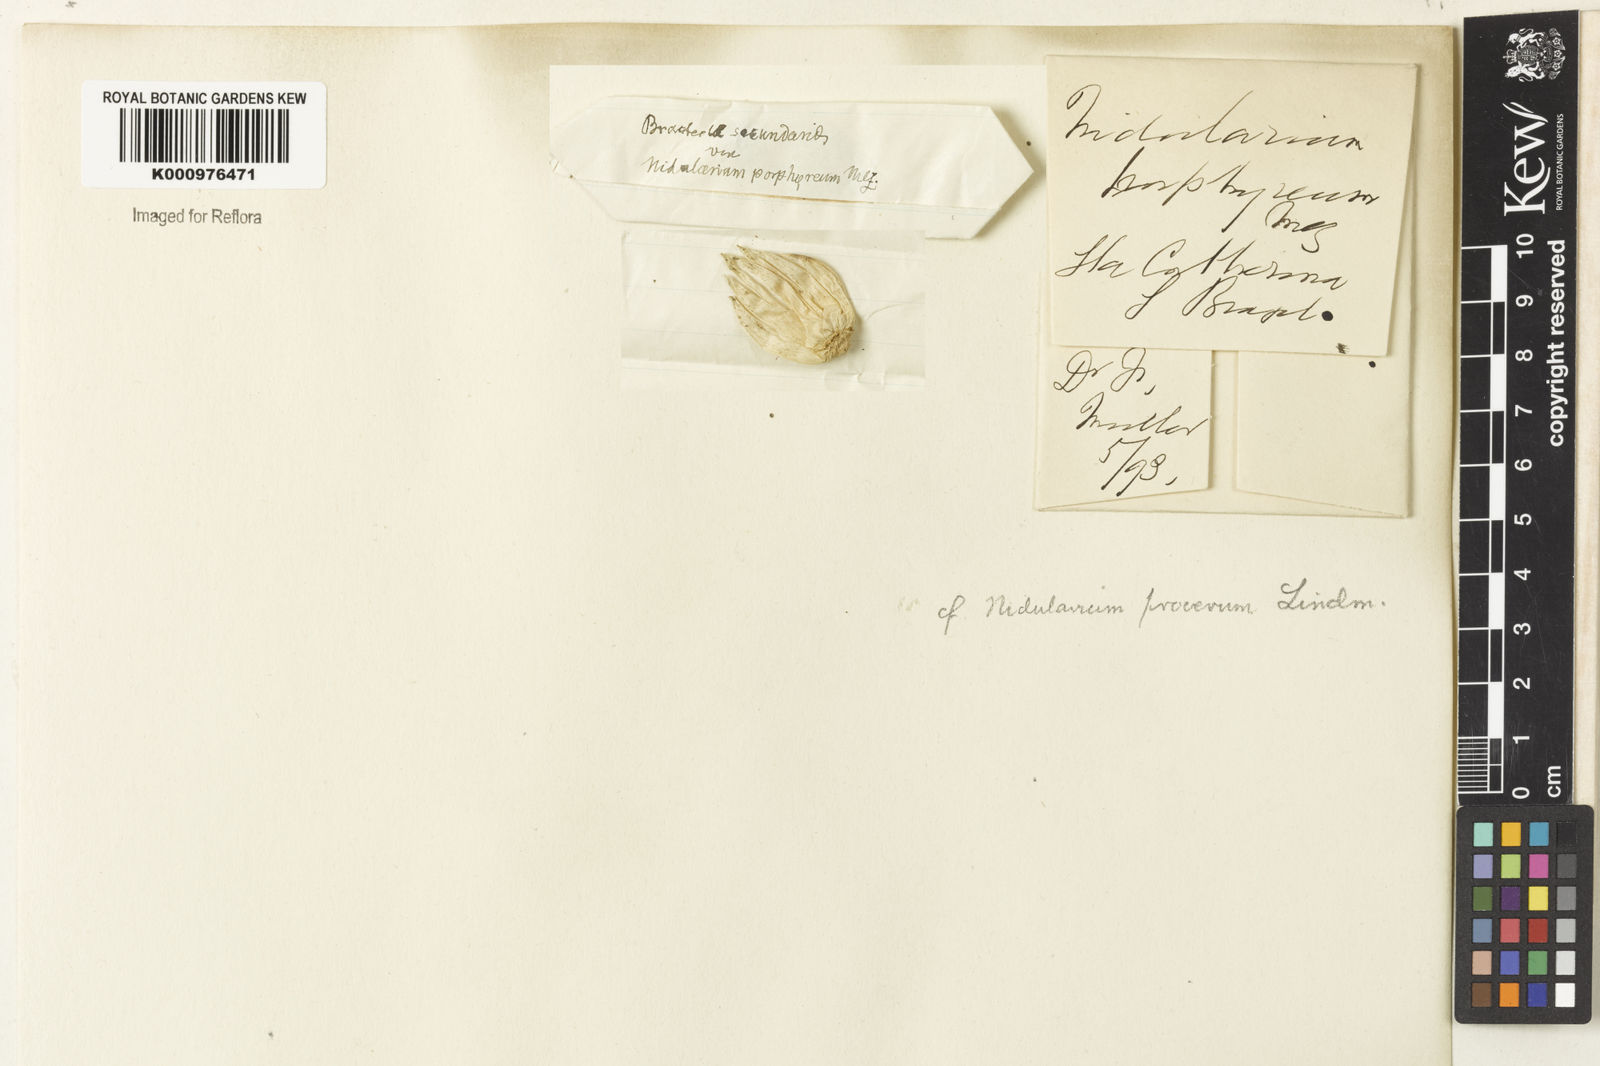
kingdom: Plantae
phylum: Tracheophyta
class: Liliopsida
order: Poales
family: Bromeliaceae
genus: Nidularium
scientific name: Nidularium procerum
